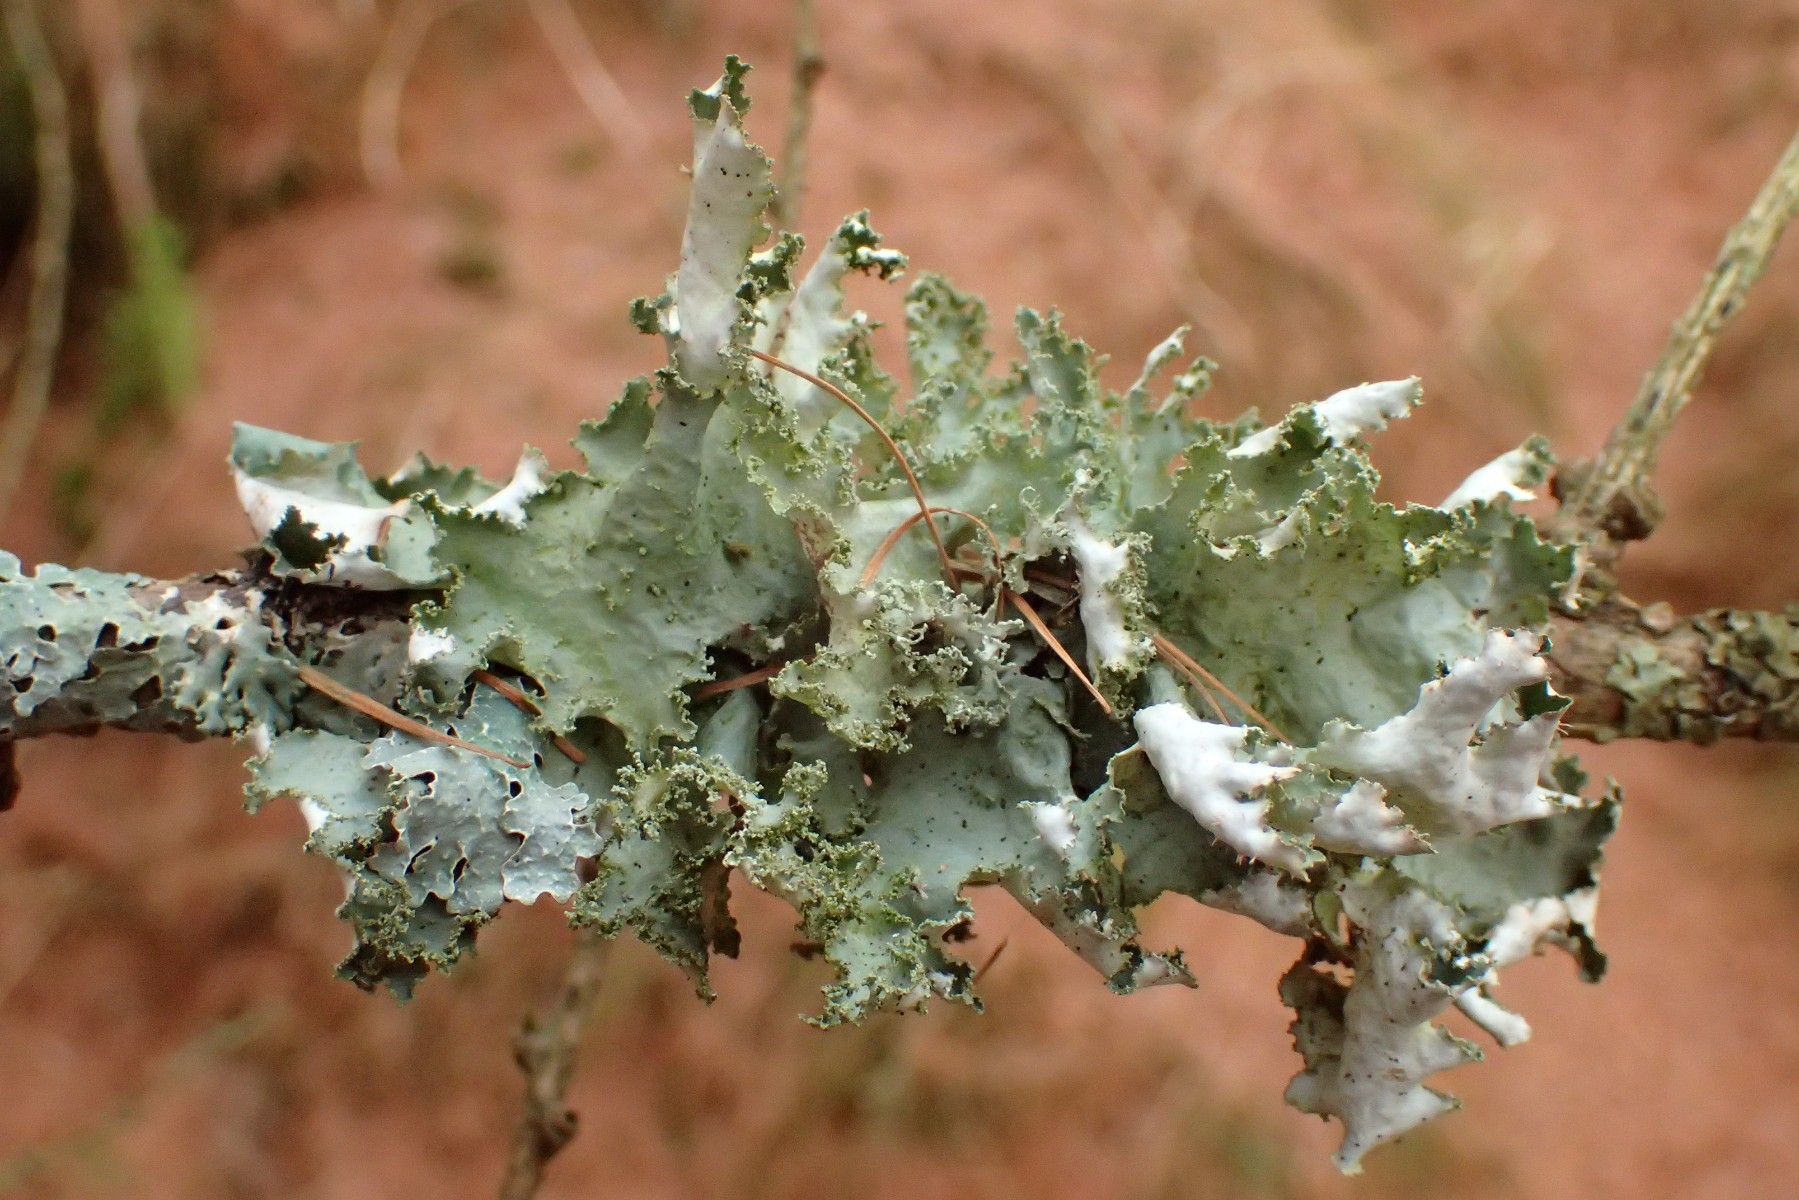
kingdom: Fungi
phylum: Ascomycota
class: Lecanoromycetes
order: Lecanorales
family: Parmeliaceae
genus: Platismatia
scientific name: Platismatia glauca
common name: blågrå papirlav
